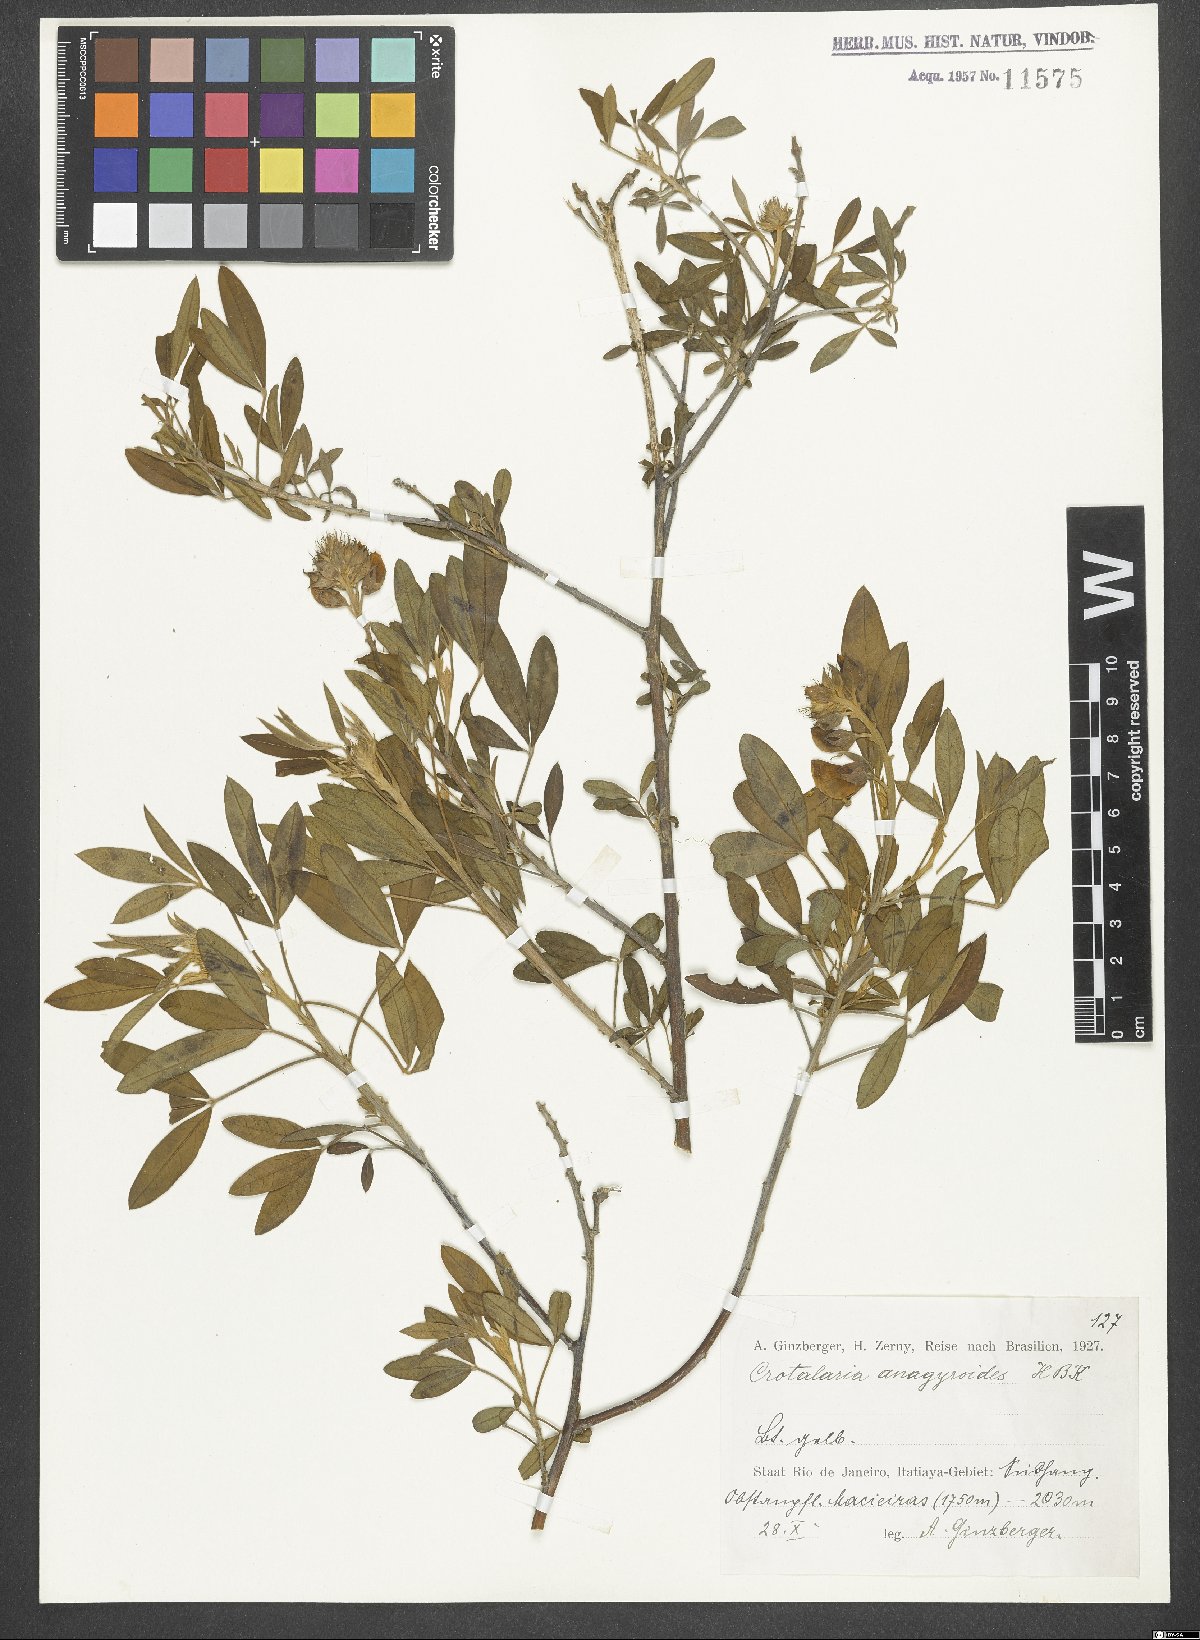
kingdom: Plantae
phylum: Tracheophyta
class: Magnoliopsida
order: Fabales
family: Fabaceae
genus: Crotalaria
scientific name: Crotalaria micans
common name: Caracas rattlebox
